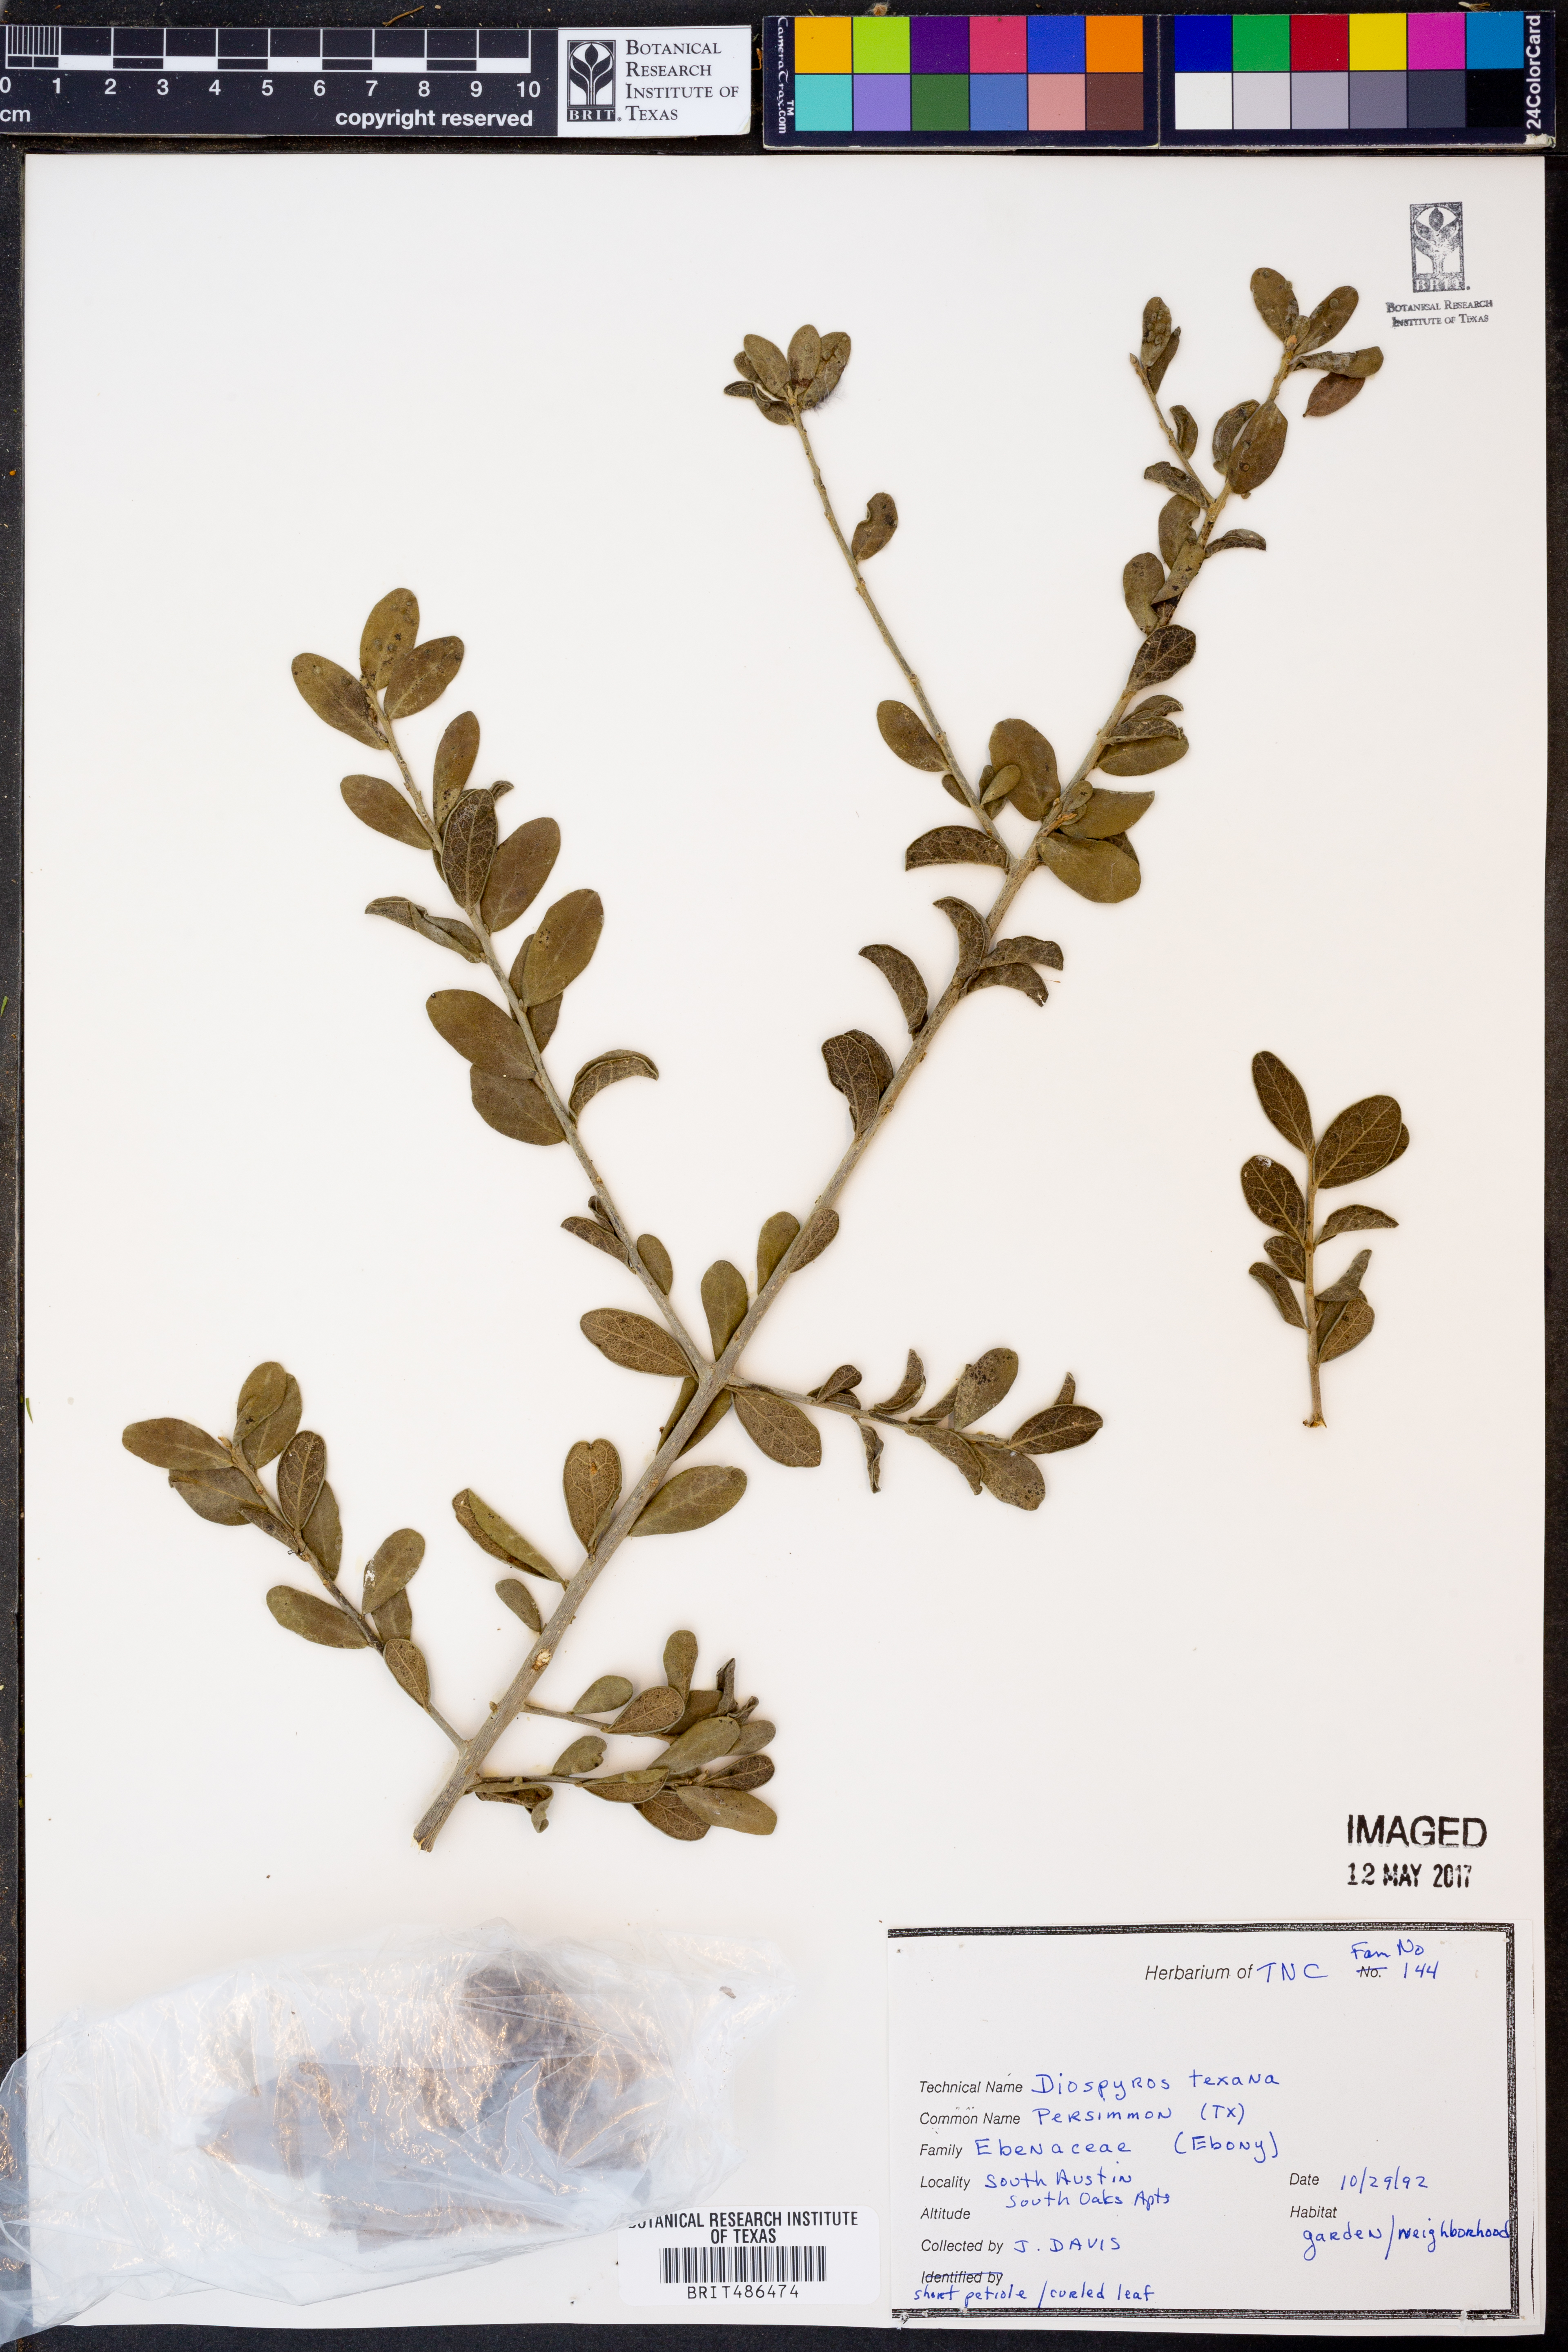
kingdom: Plantae
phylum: Tracheophyta
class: Magnoliopsida
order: Ericales
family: Ebenaceae
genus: Diospyros
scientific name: Diospyros texana
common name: Texas persimmon
